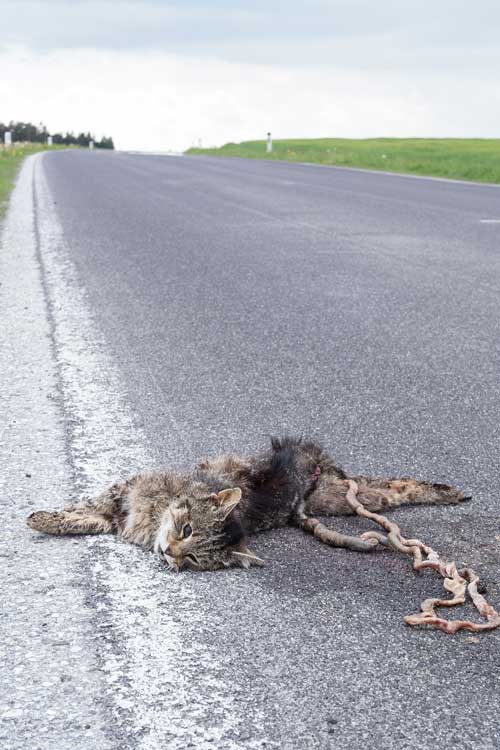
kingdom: Animalia
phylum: Chordata
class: Mammalia
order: Carnivora
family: Felidae
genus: Felis
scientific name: Felis catus
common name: Domestic cat
